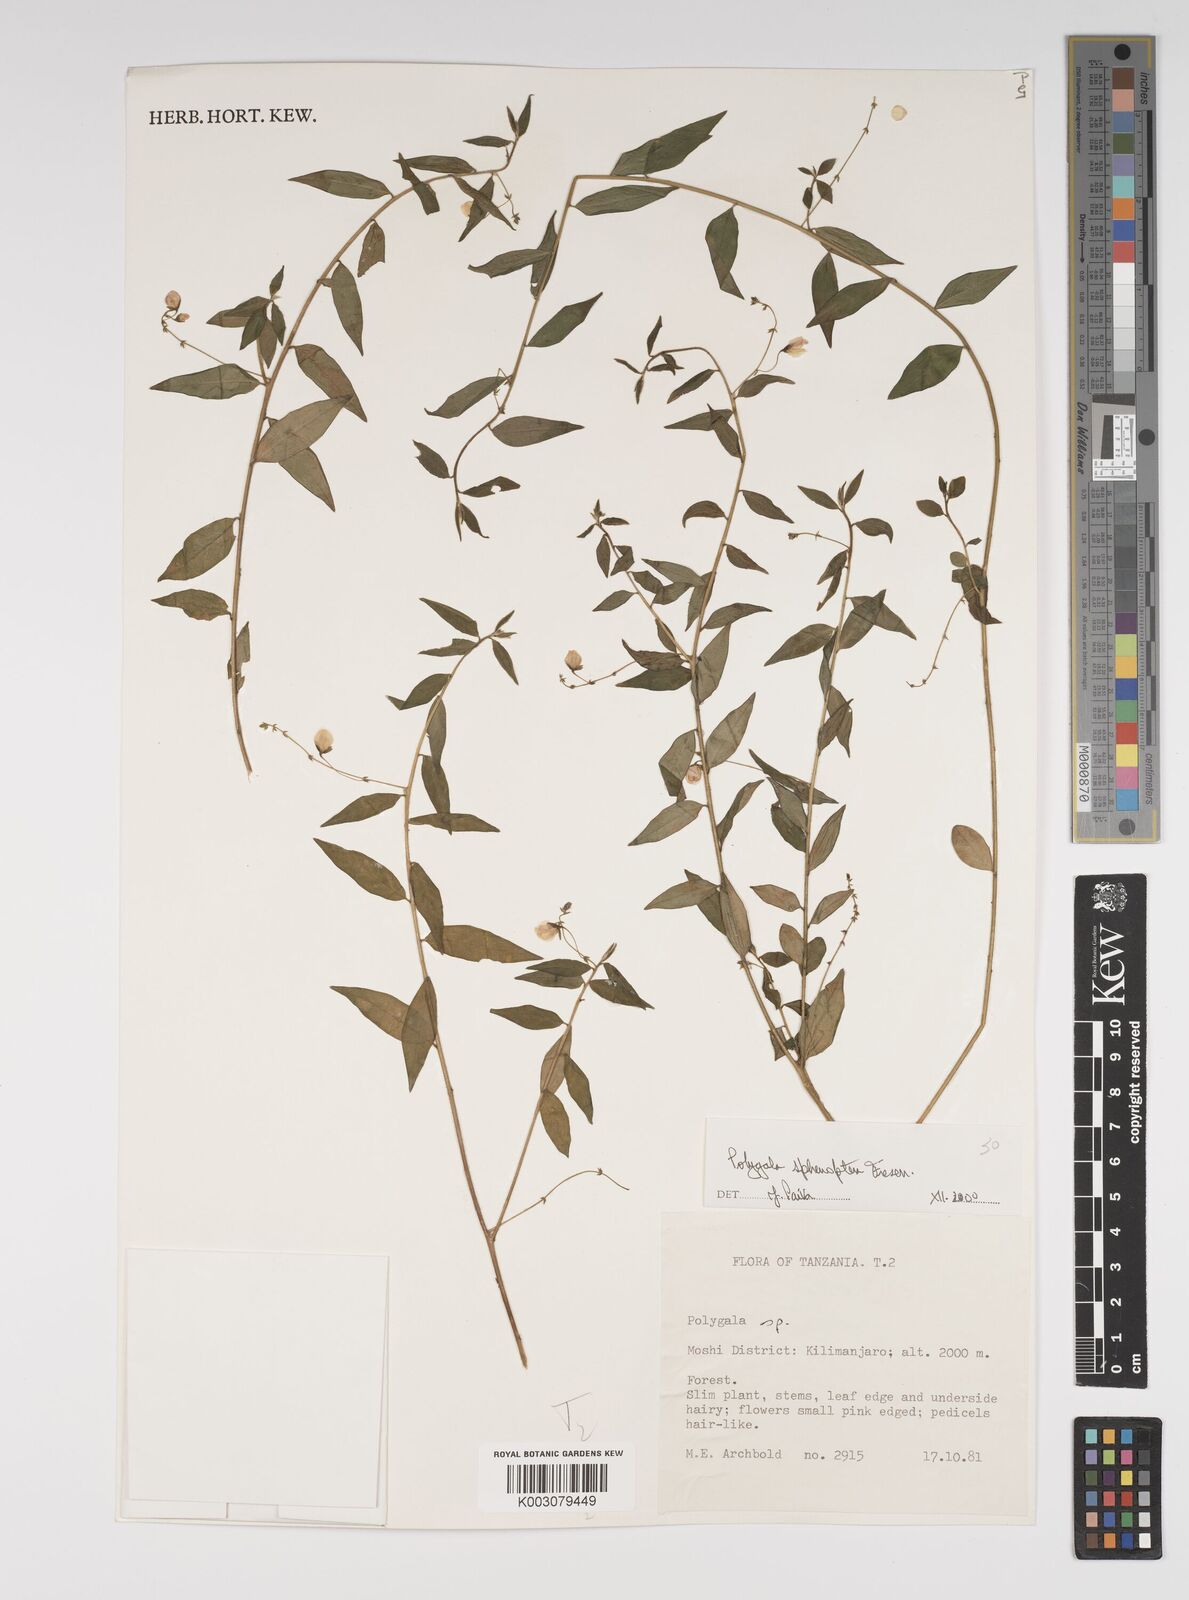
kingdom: Plantae
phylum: Tracheophyta
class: Magnoliopsida
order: Fabales
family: Polygalaceae
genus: Polygala
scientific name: Polygala sphenoptera
